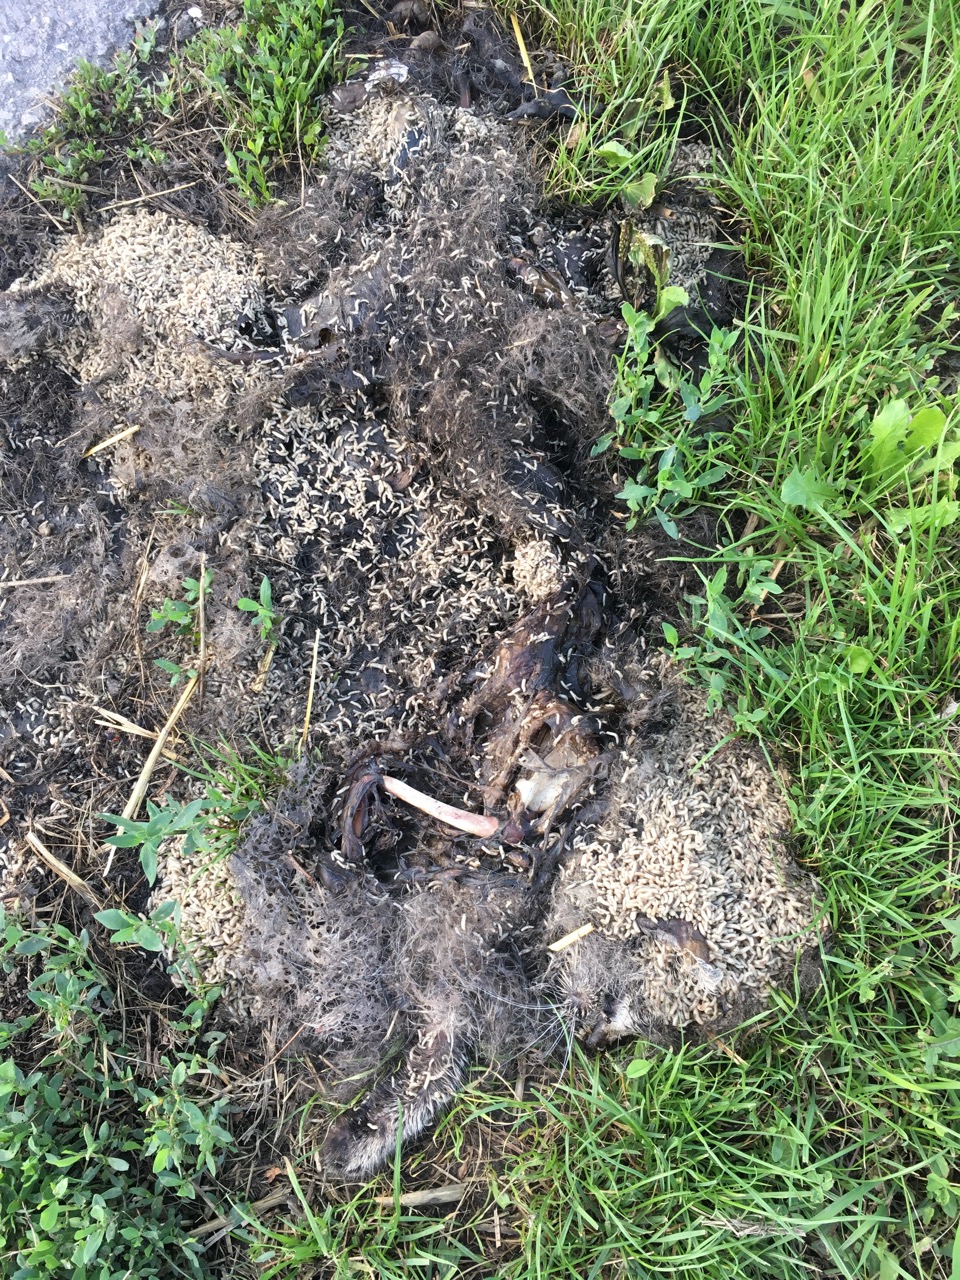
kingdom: Animalia
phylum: Chordata
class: Mammalia
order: Carnivora
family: Felidae
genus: Felis
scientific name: Felis catus
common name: Domestic cat
